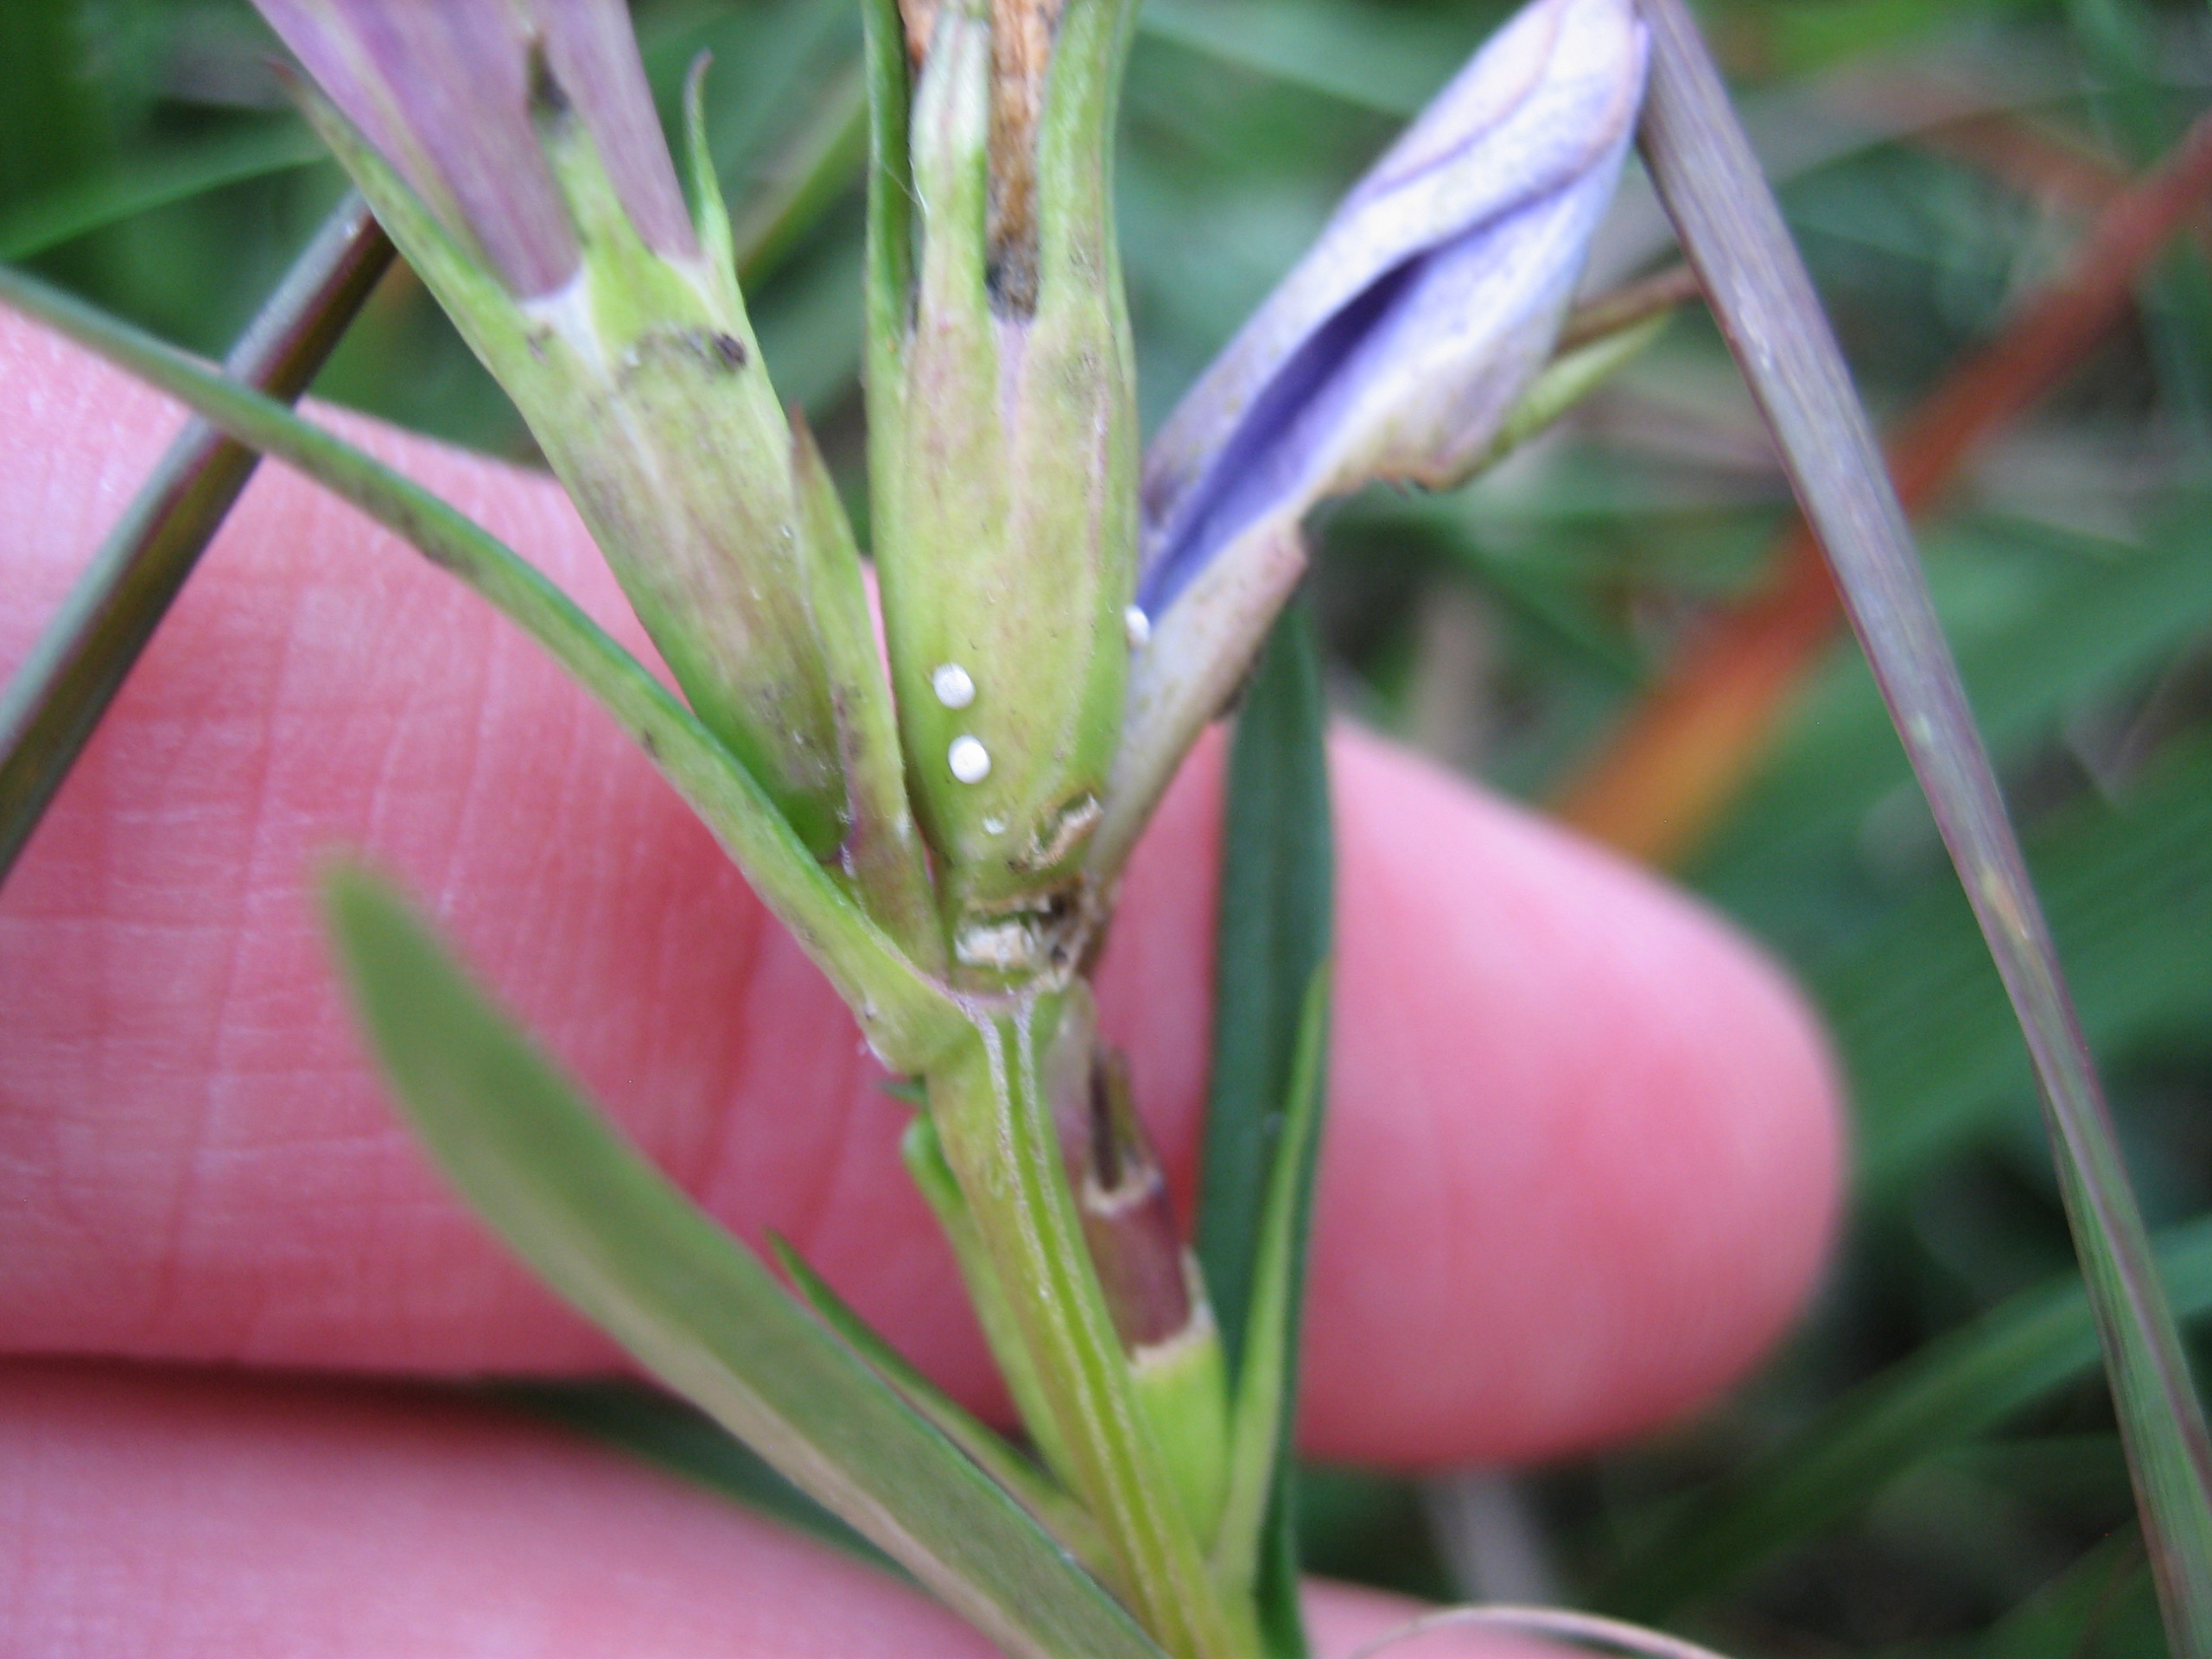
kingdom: Animalia
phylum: Arthropoda
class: Insecta
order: Lepidoptera
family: Lycaenidae
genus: Maculinea
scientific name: Maculinea alcon
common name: Ensianblåfugl
